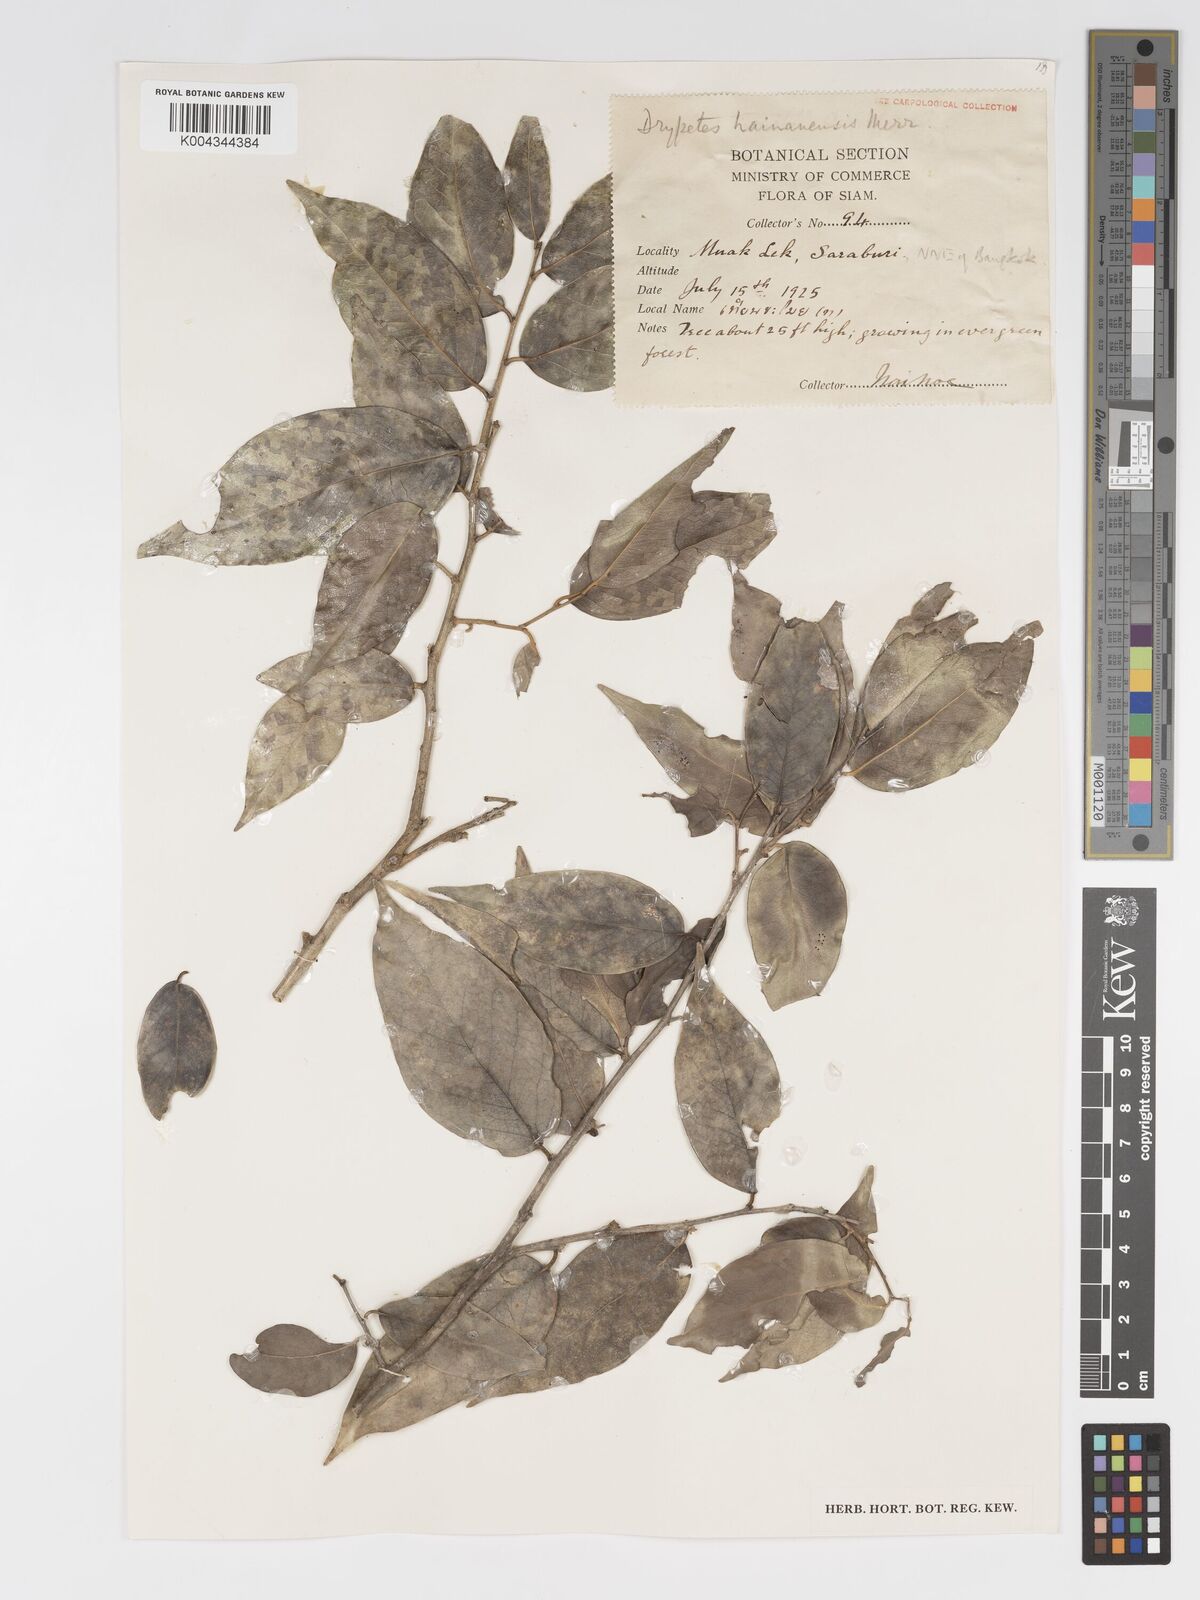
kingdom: Plantae
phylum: Tracheophyta
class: Magnoliopsida
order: Malpighiales
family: Putranjivaceae
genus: Drypetes
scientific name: Drypetes hainanensis
